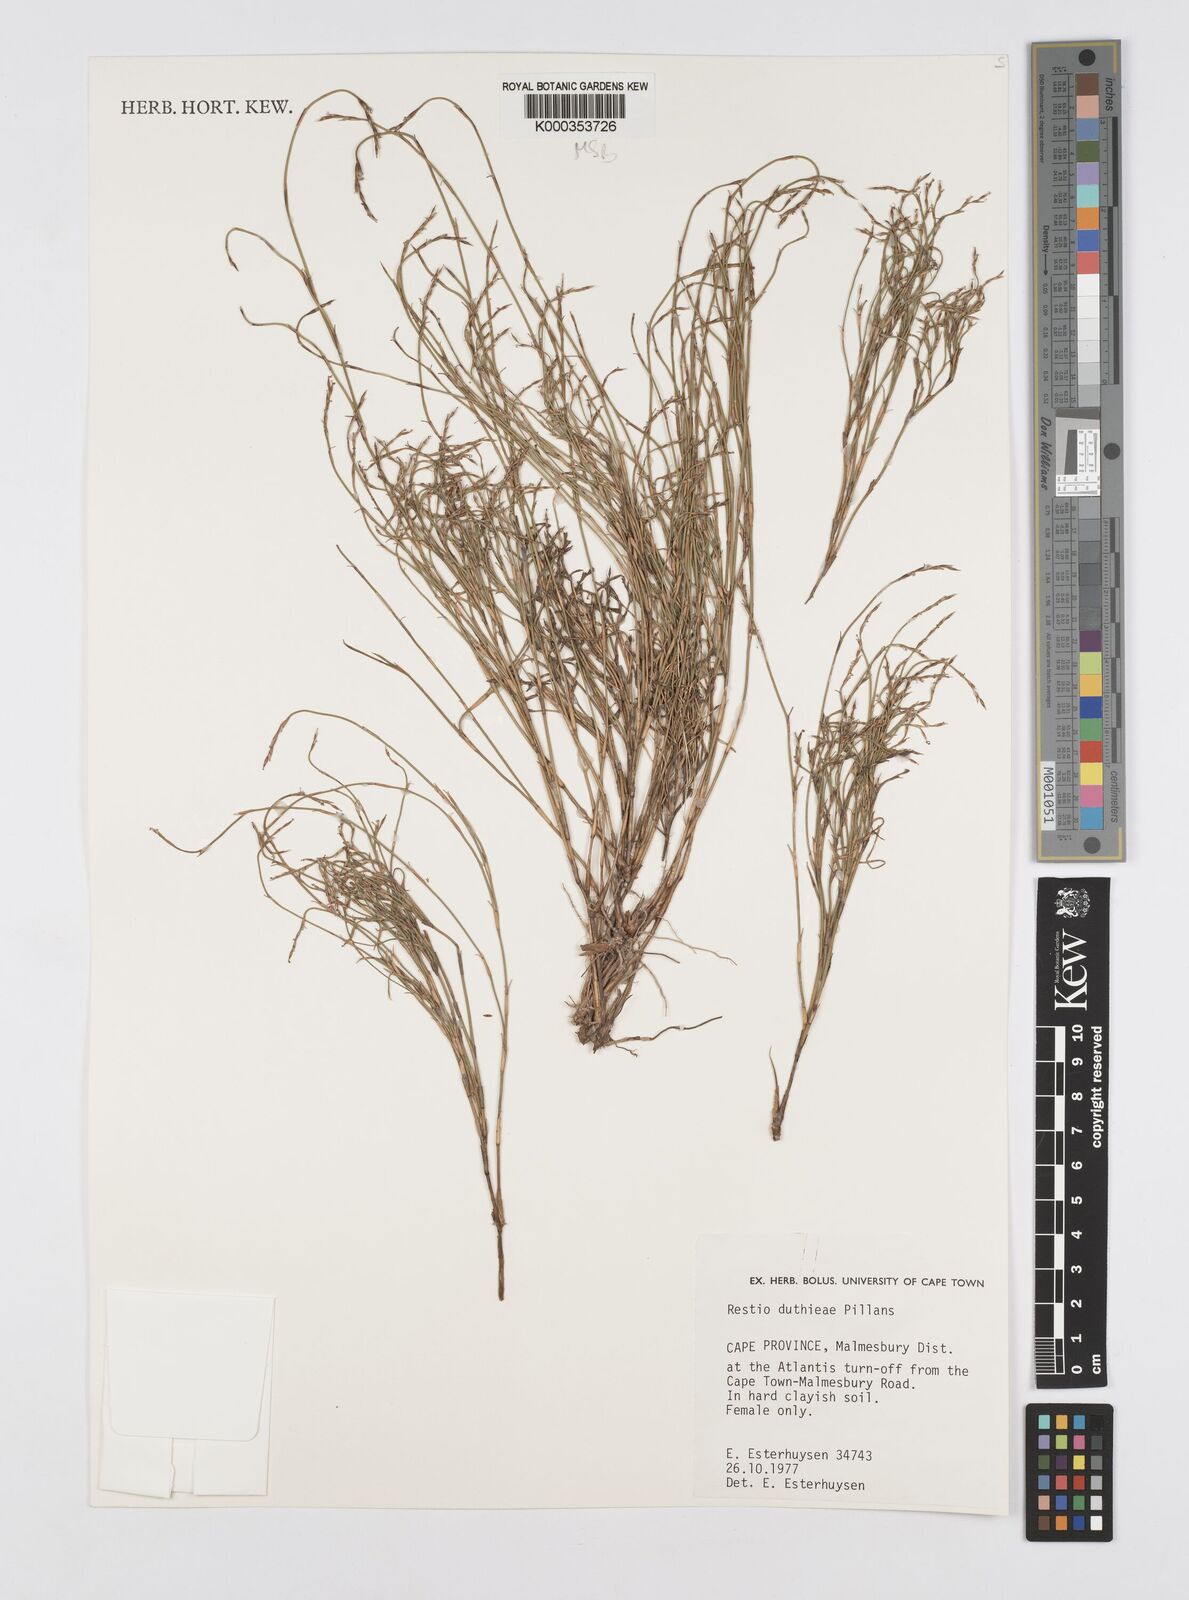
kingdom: Plantae
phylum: Tracheophyta
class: Liliopsida
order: Poales
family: Restionaceae
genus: Restio
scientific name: Restio duthieae
